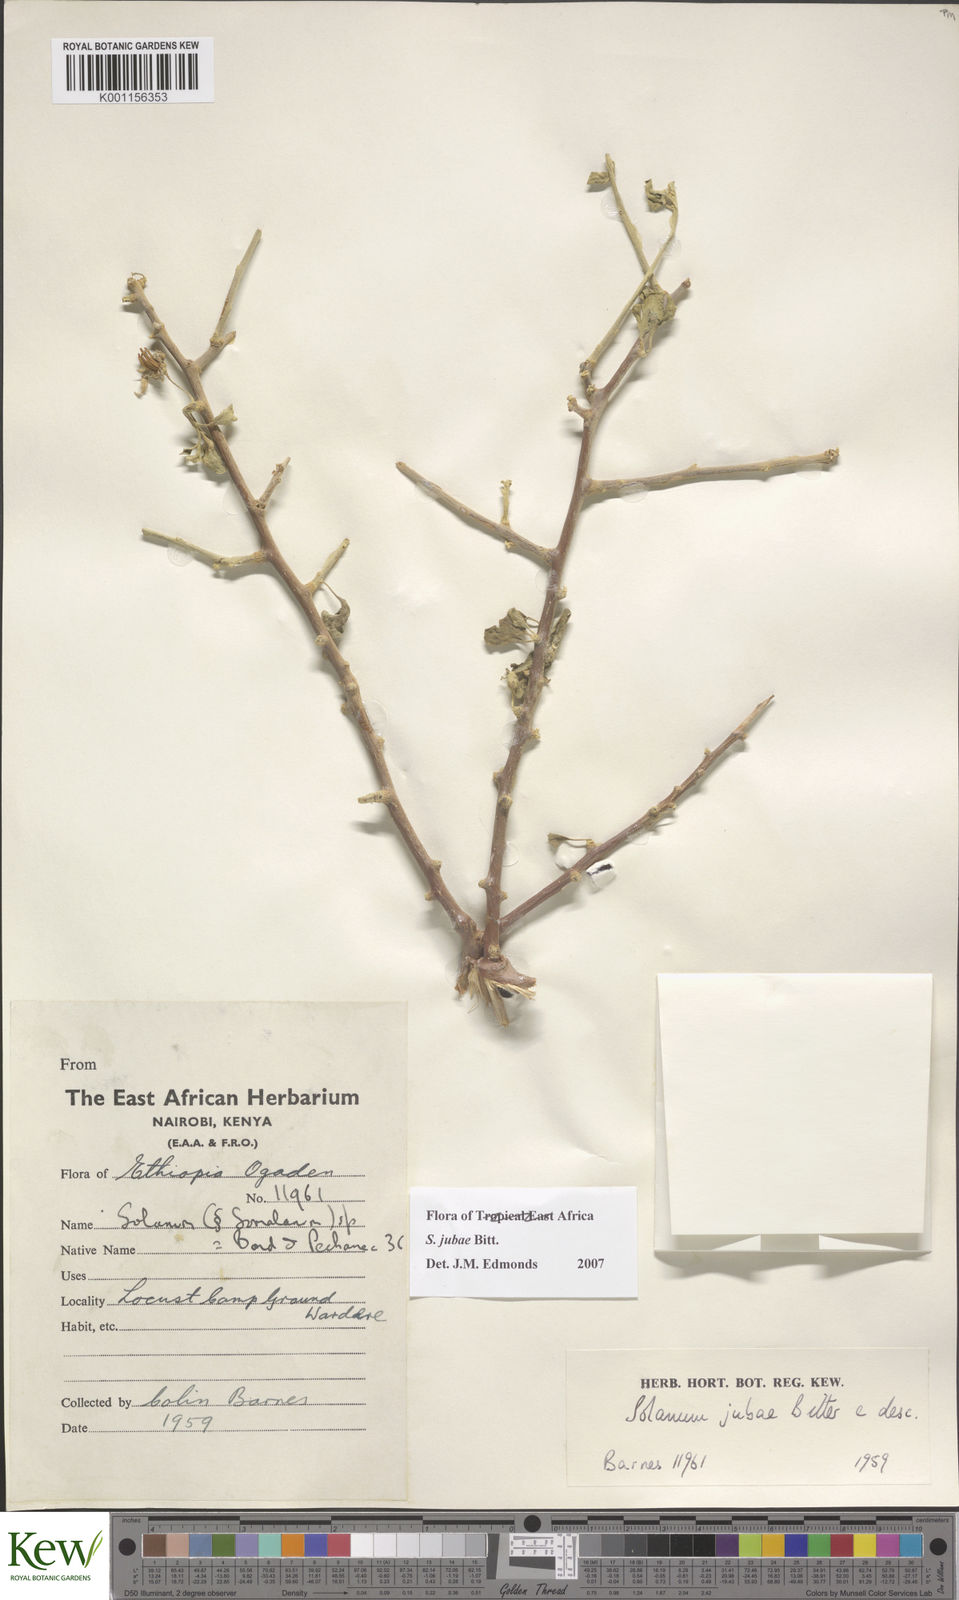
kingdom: Plantae
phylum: Tracheophyta
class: Magnoliopsida
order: Solanales
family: Solanaceae
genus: Solanum
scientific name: Solanum jubae
